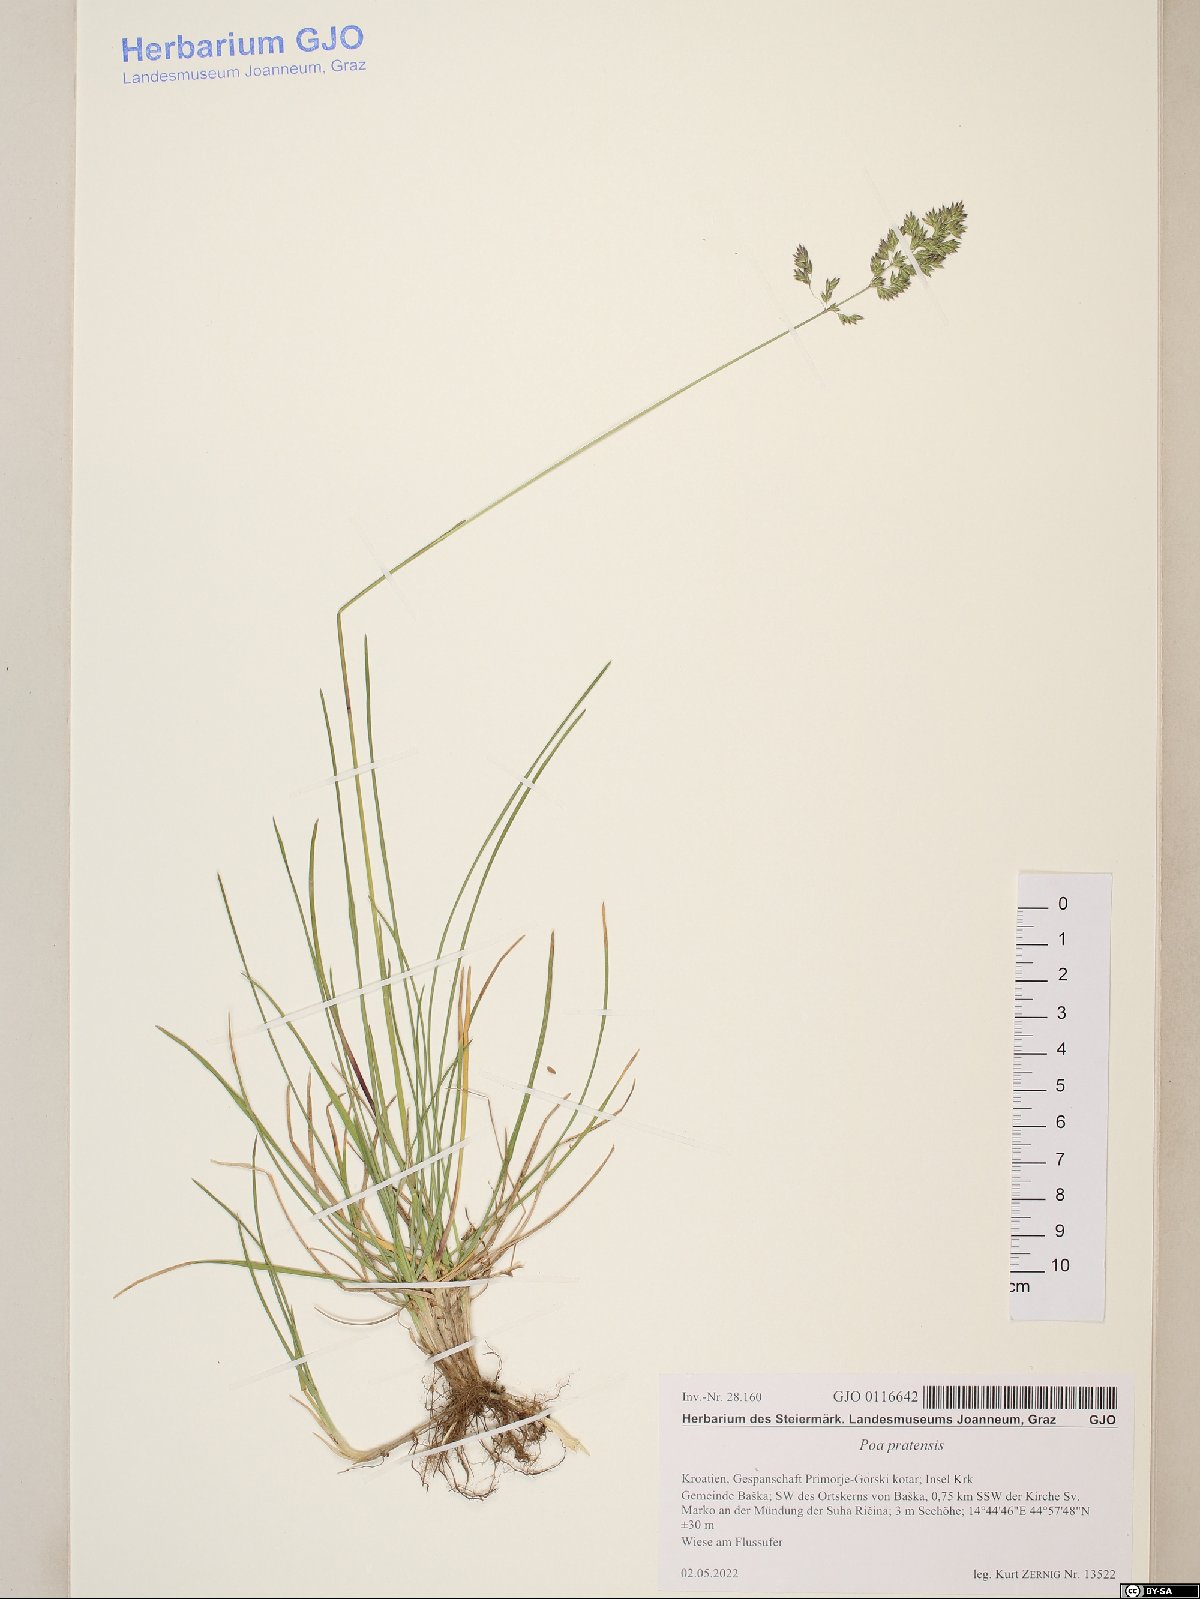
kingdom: Plantae
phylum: Tracheophyta
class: Liliopsida
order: Poales
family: Poaceae
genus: Poa
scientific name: Poa pratensis
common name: Kentucky bluegrass
